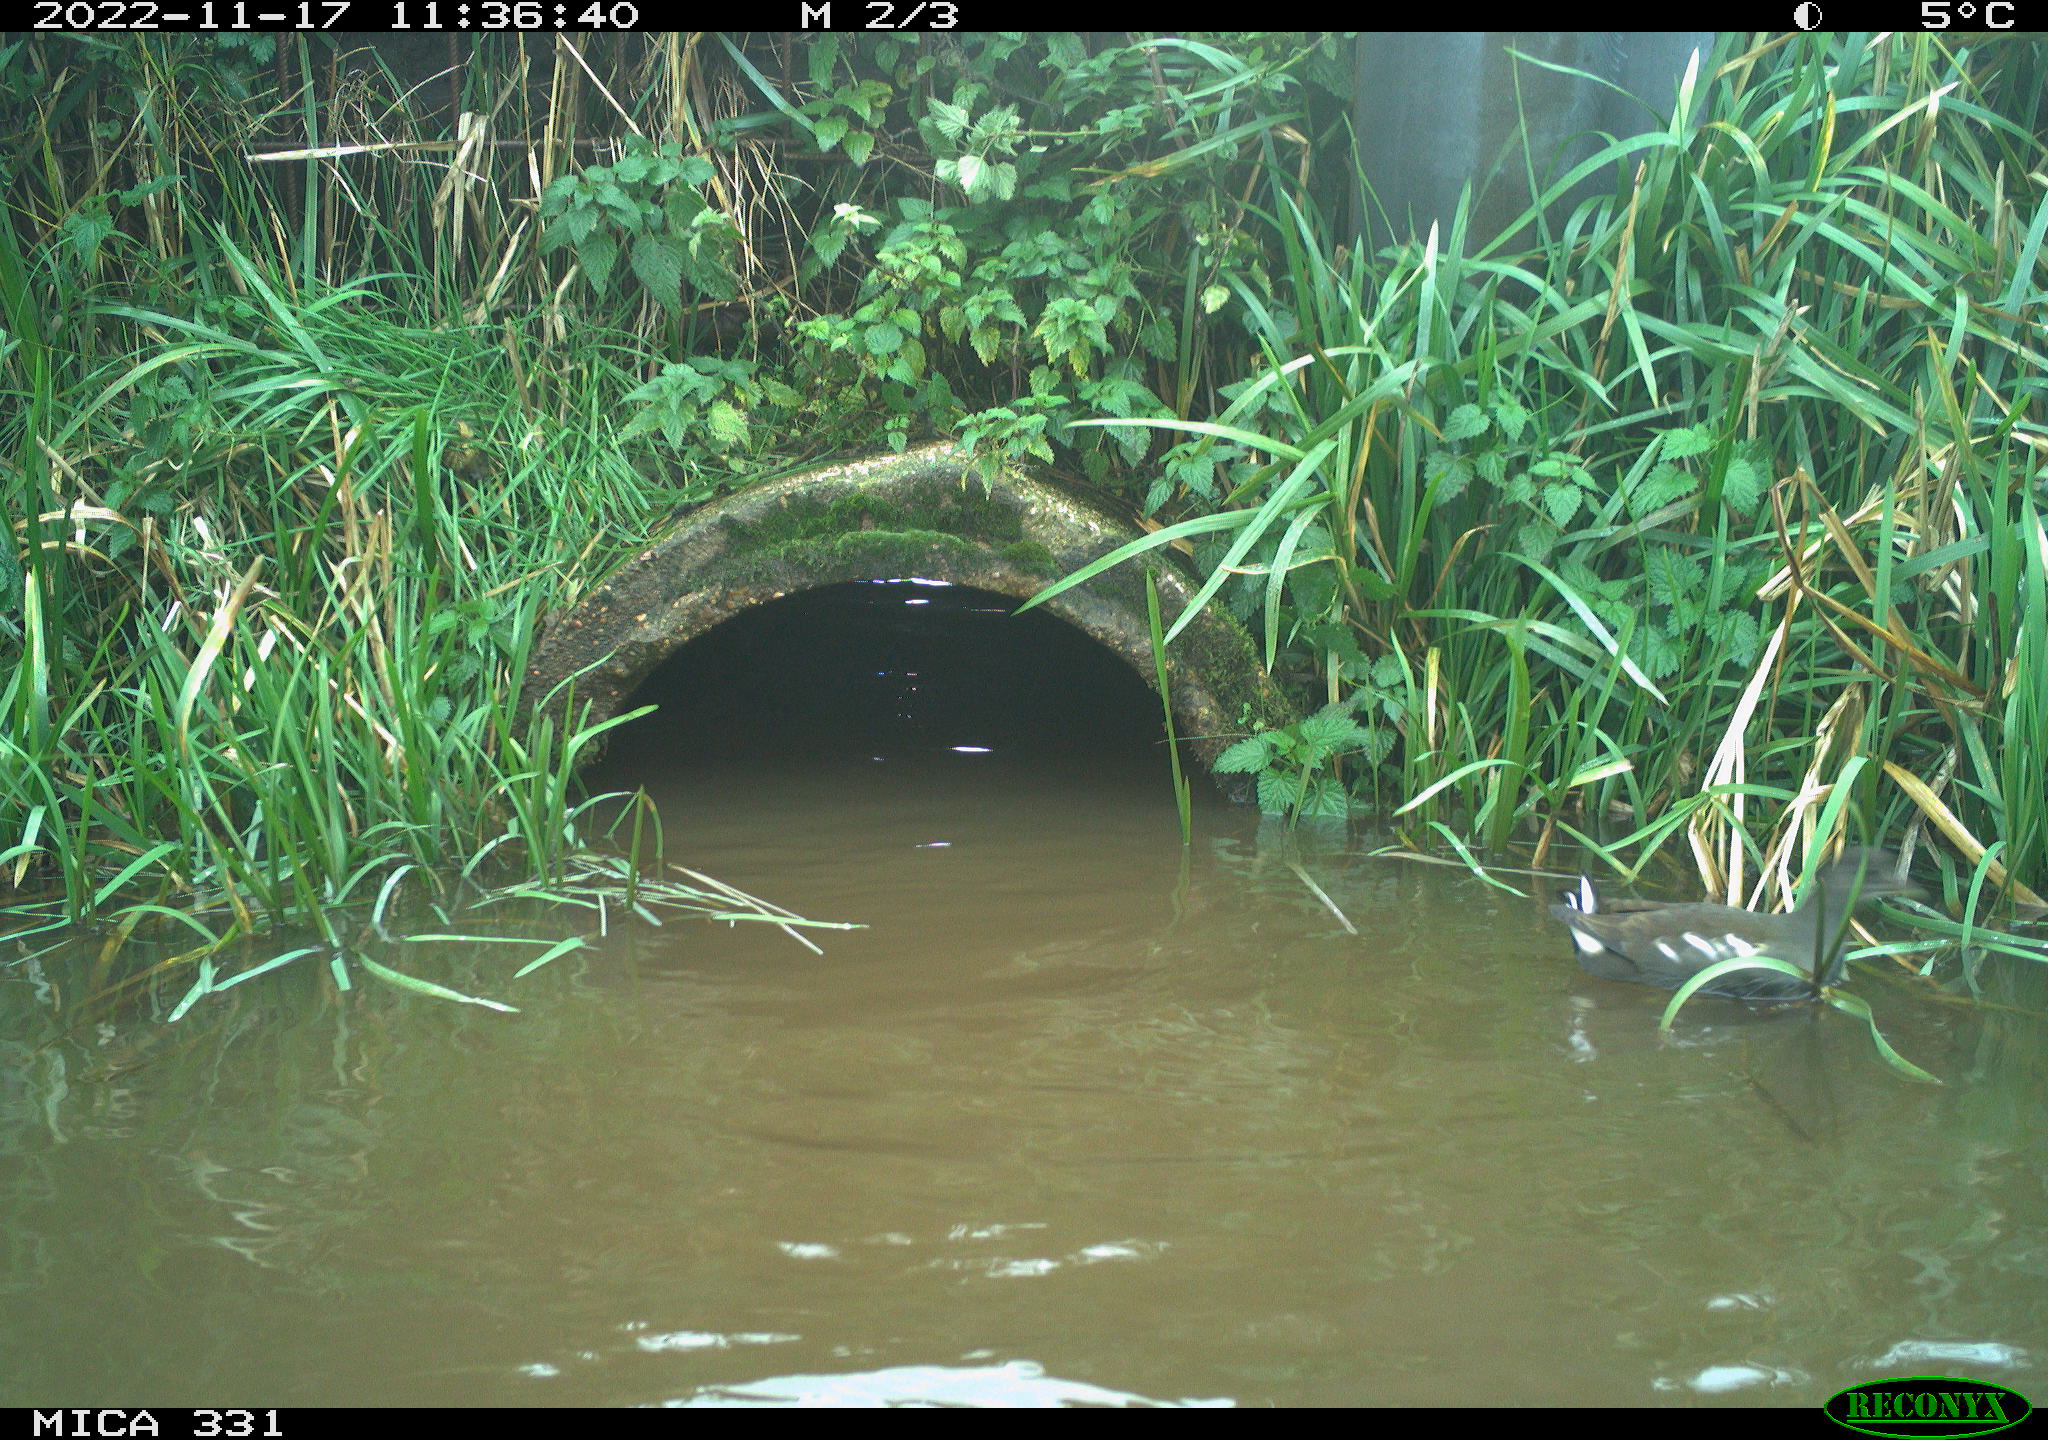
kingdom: Animalia
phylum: Chordata
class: Aves
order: Gruiformes
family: Rallidae
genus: Gallinula
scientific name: Gallinula chloropus
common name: Common moorhen
